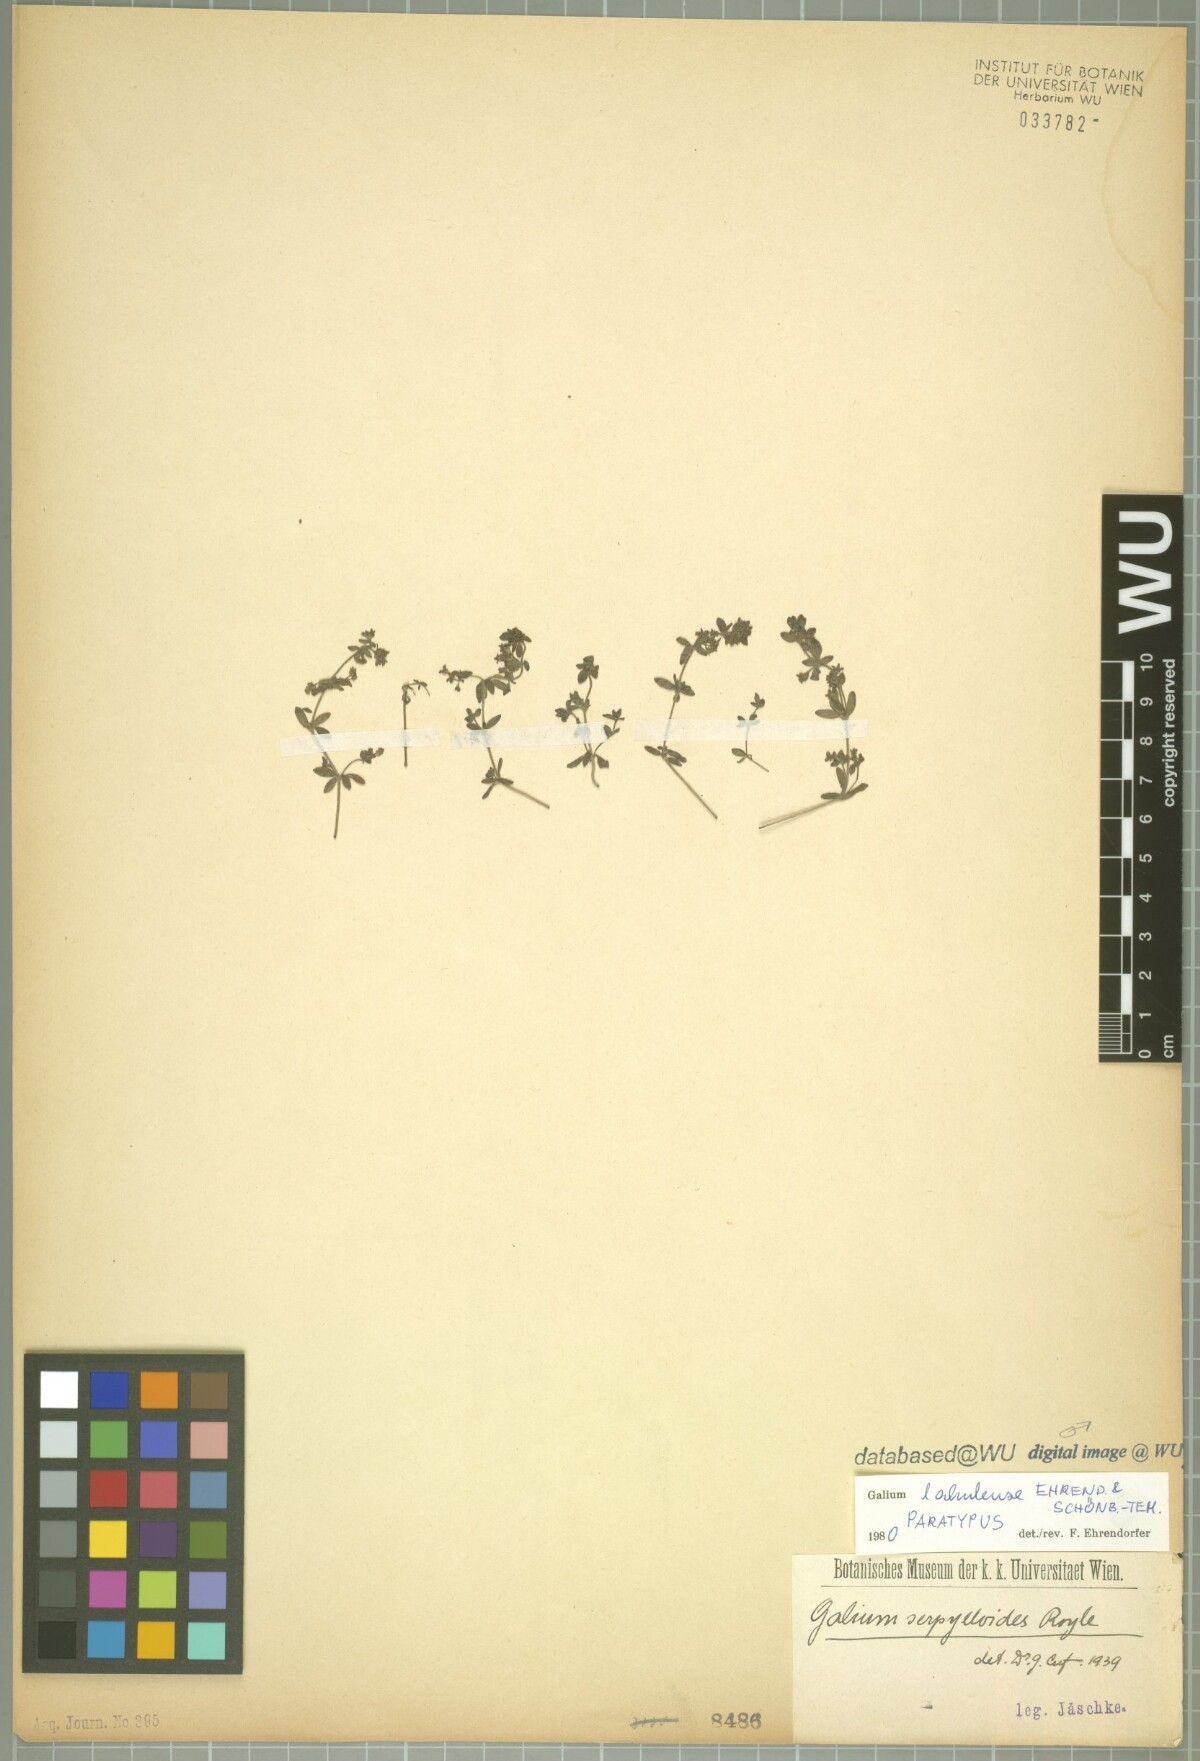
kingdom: Plantae
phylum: Tracheophyta
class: Magnoliopsida
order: Gentianales
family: Rubiaceae
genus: Galium
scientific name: Galium lahulense
